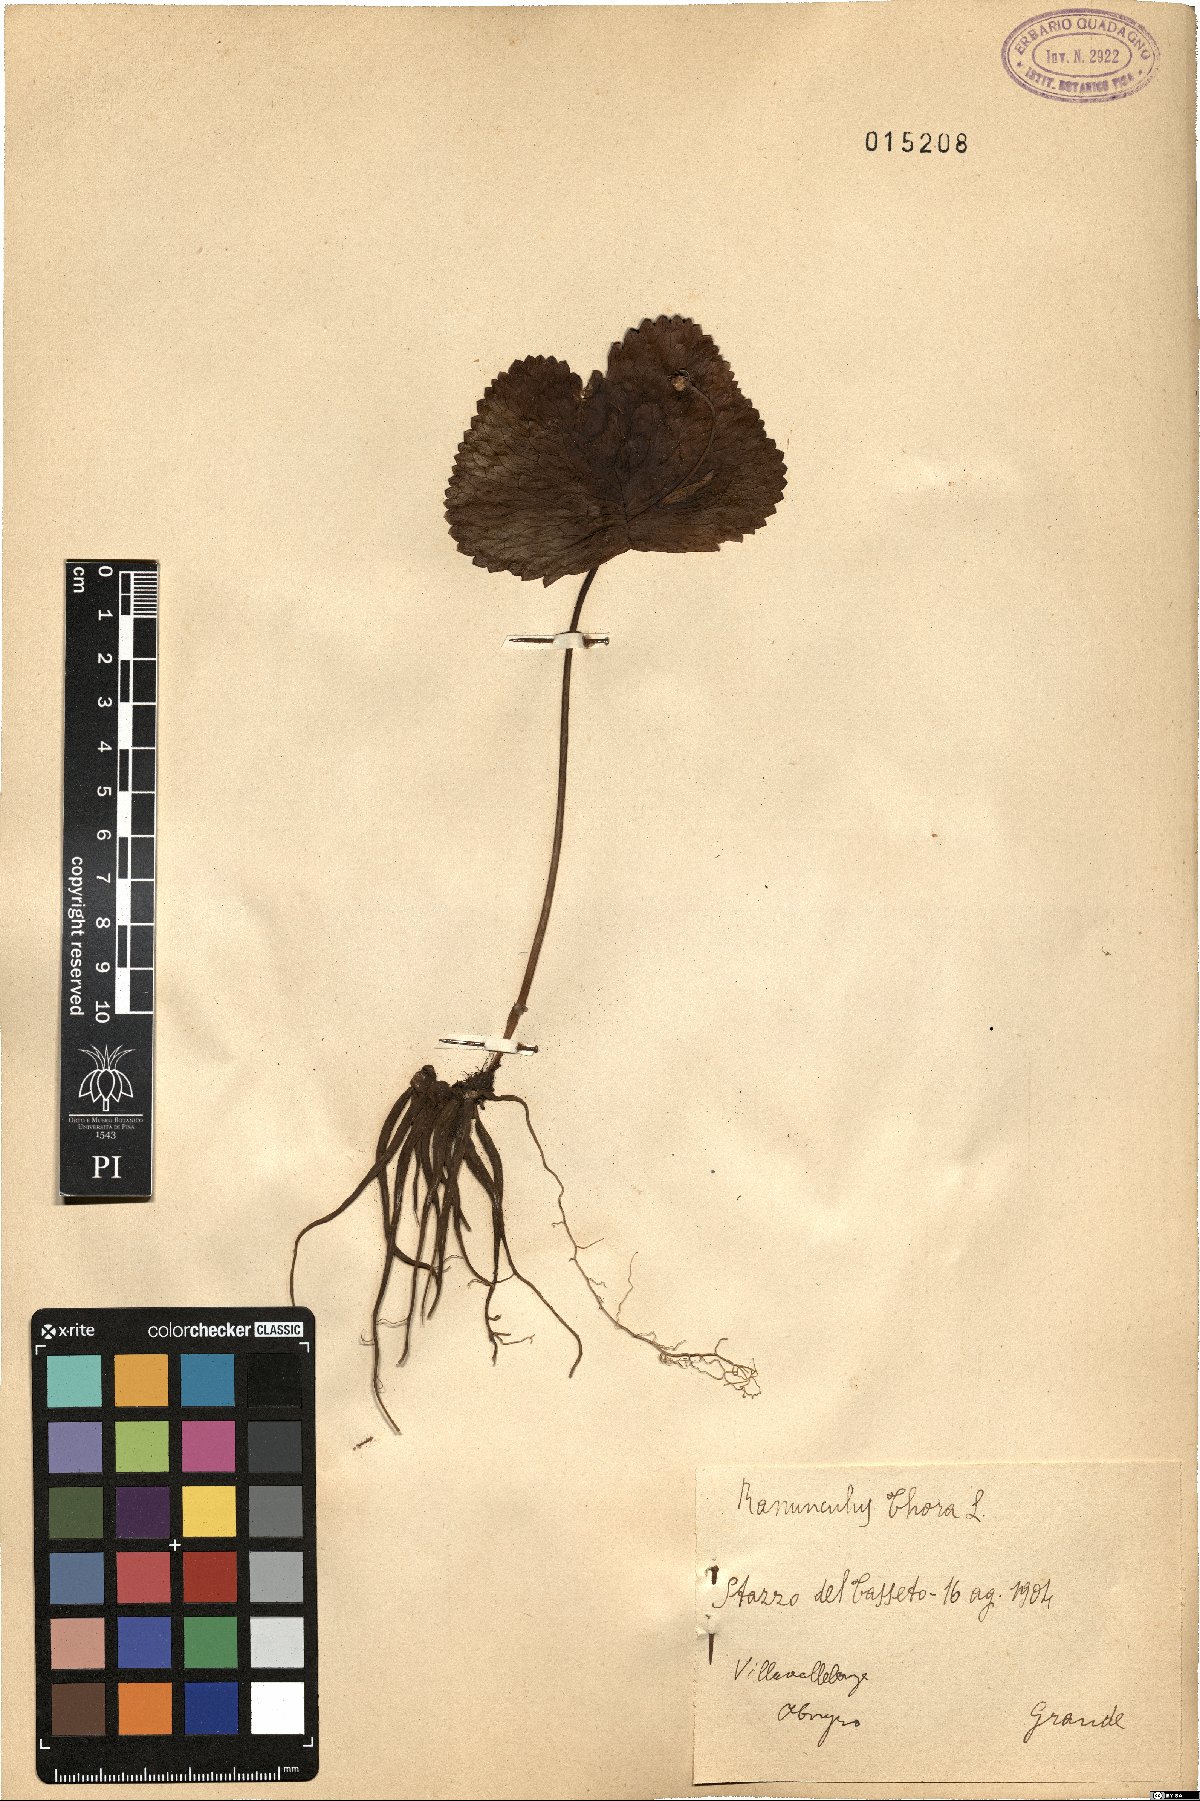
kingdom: Plantae
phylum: Tracheophyta
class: Magnoliopsida
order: Ranunculales
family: Ranunculaceae
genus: Ranunculus
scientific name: Ranunculus thora
